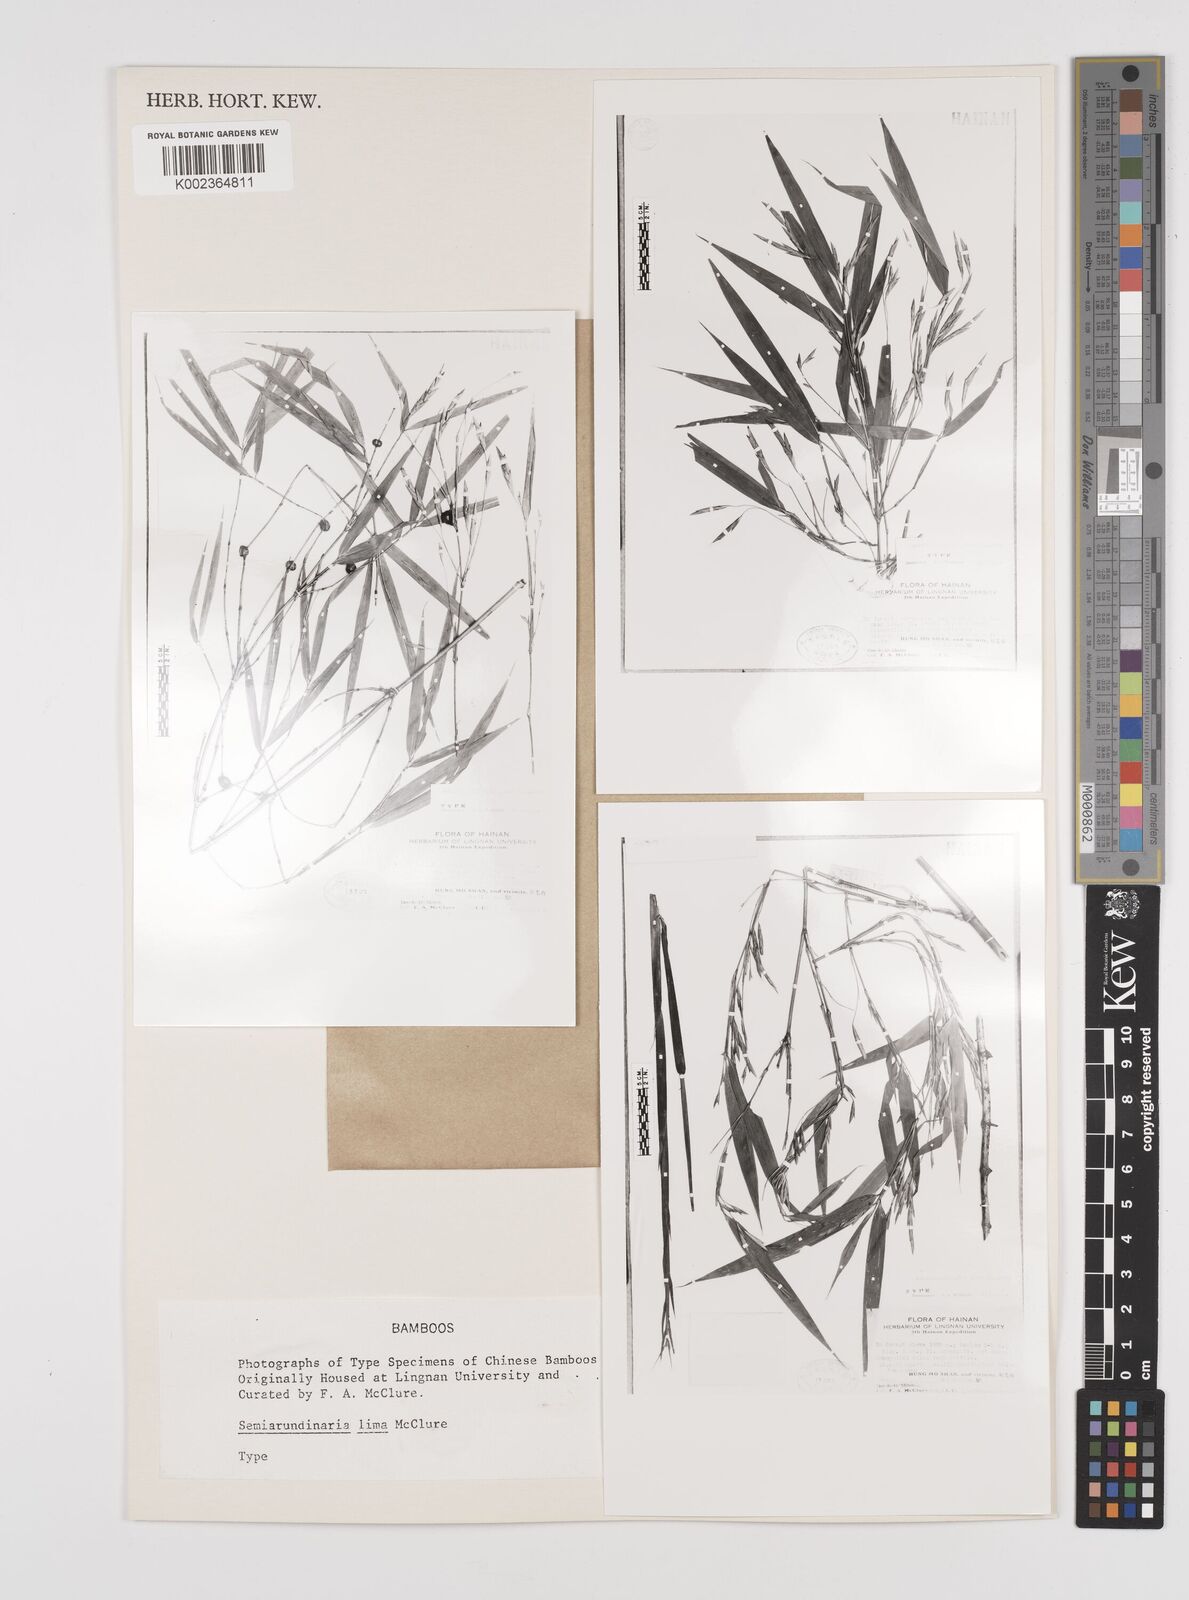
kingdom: Plantae
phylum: Tracheophyta
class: Liliopsida
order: Poales
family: Poaceae
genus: Semiarundinaria
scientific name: Semiarundinaria fastuosa
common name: Narihira bamboo
